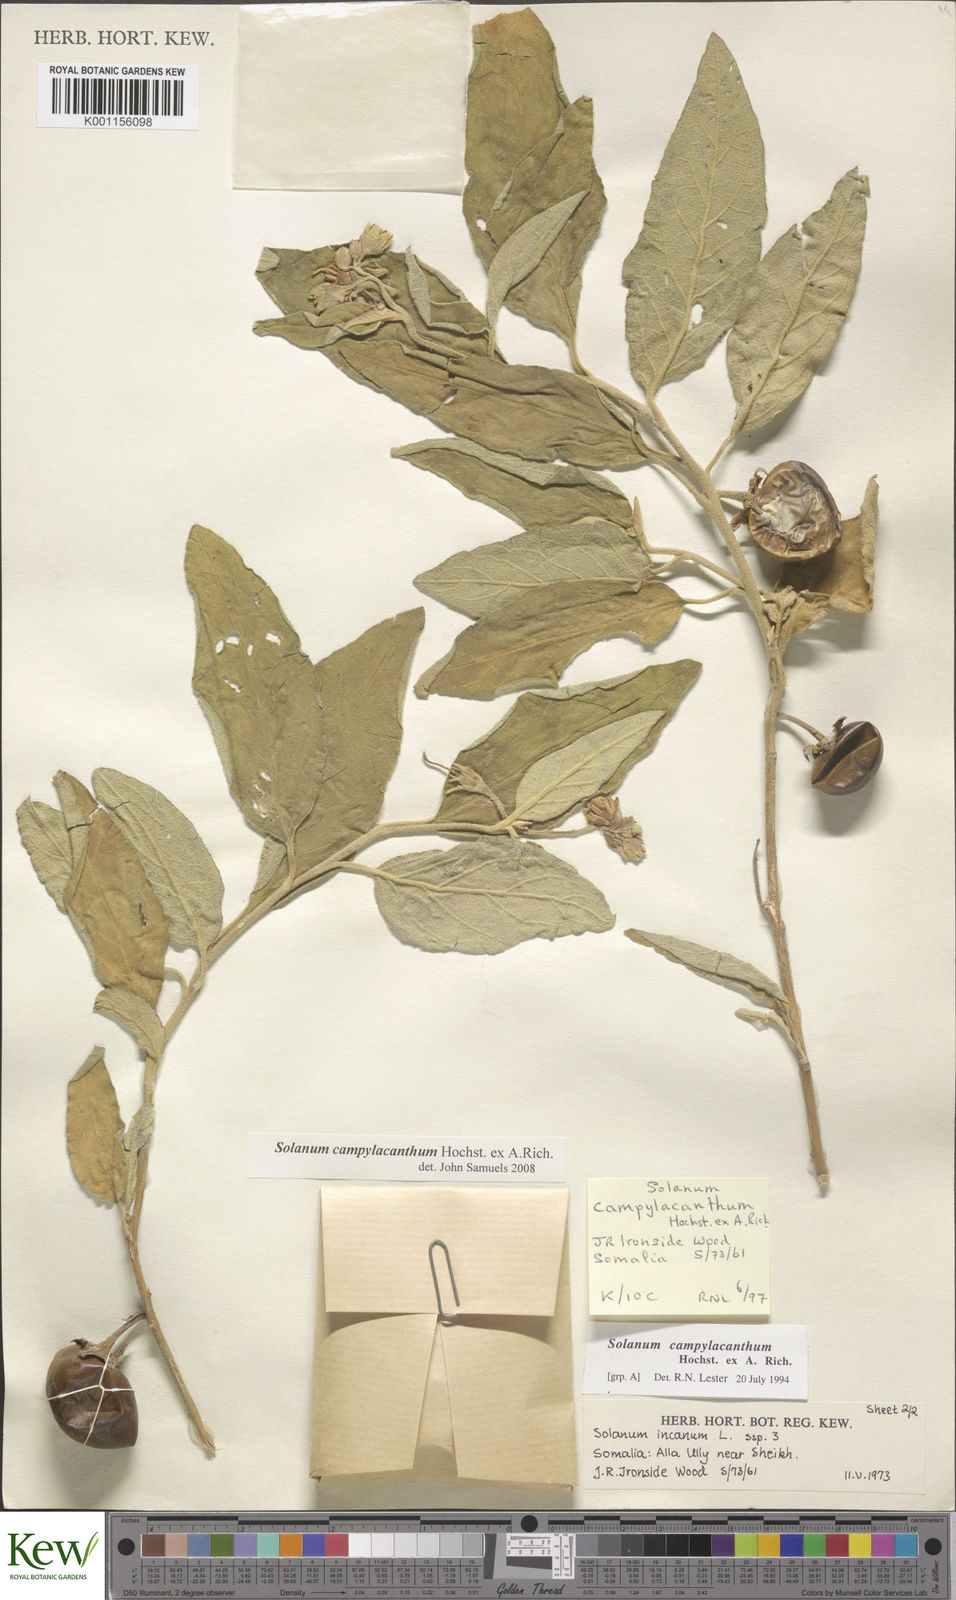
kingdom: Plantae
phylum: Tracheophyta
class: Magnoliopsida
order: Solanales
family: Solanaceae
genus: Solanum
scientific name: Solanum campylacanthum
